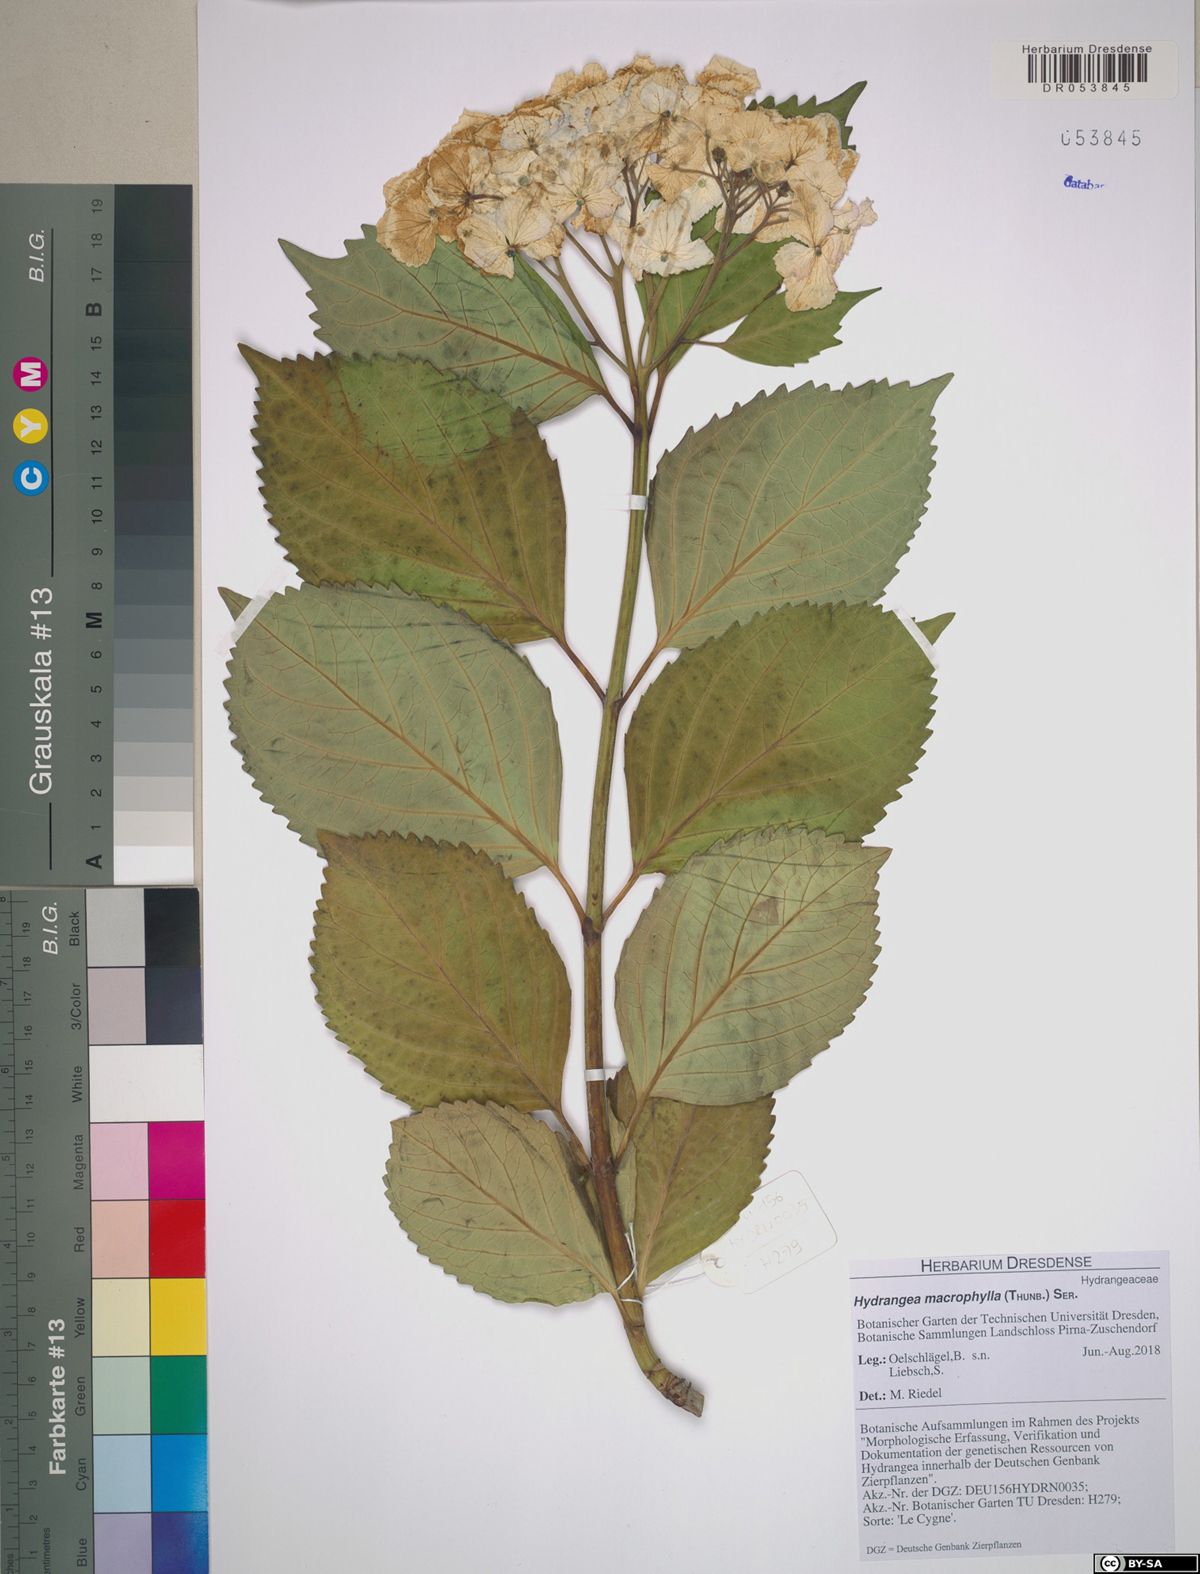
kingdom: Plantae
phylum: Tracheophyta
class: Magnoliopsida
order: Cornales
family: Hydrangeaceae
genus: Hydrangea
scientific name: Hydrangea macrophylla
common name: Hydrangea
